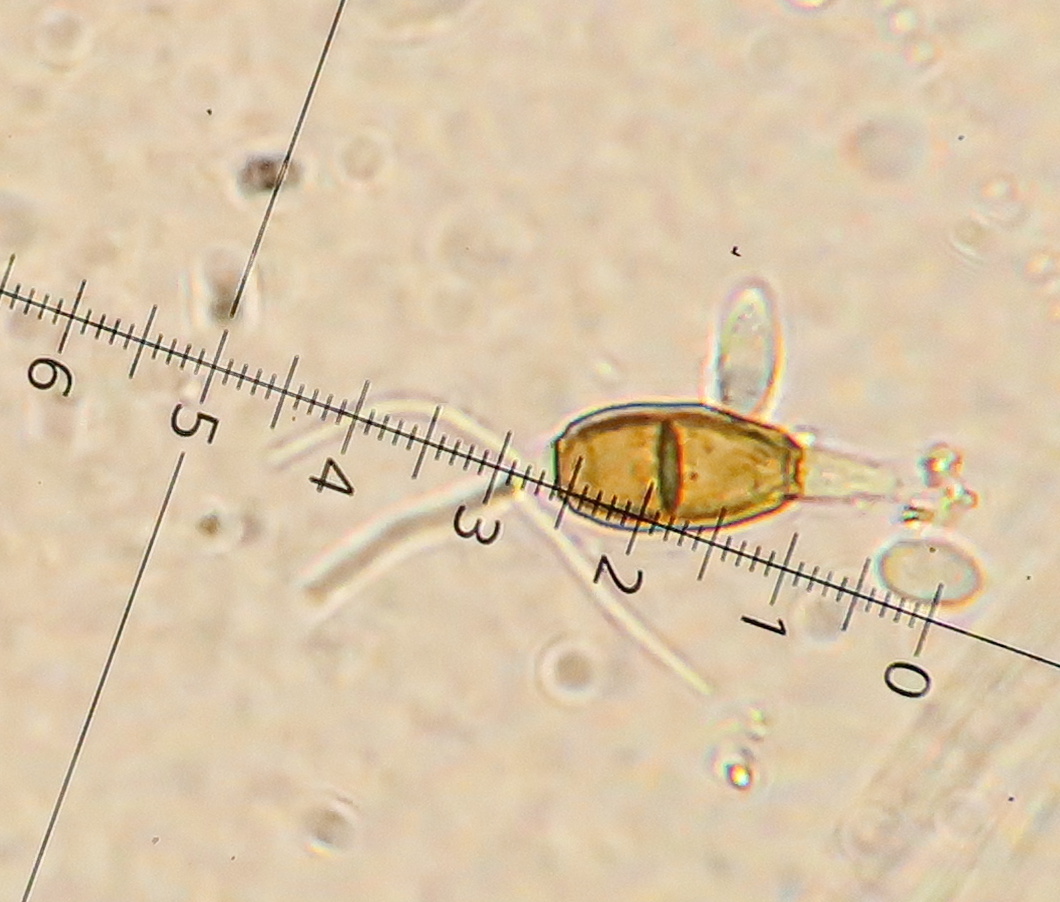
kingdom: Fungi
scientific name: Fungi
